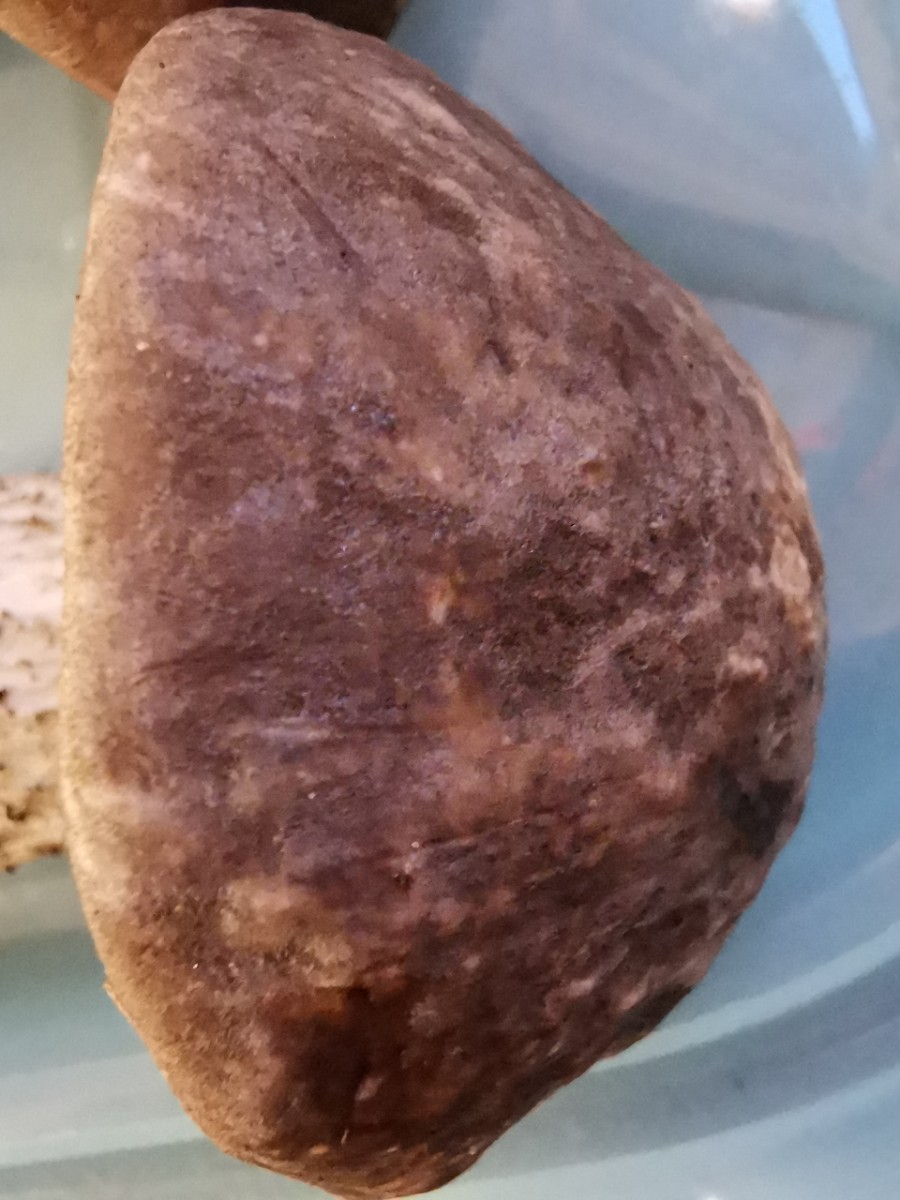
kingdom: Fungi
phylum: Basidiomycota
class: Agaricomycetes
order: Boletales
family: Boletaceae
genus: Leccinum
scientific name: Leccinum variicolor
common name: flammet skælrørhat
